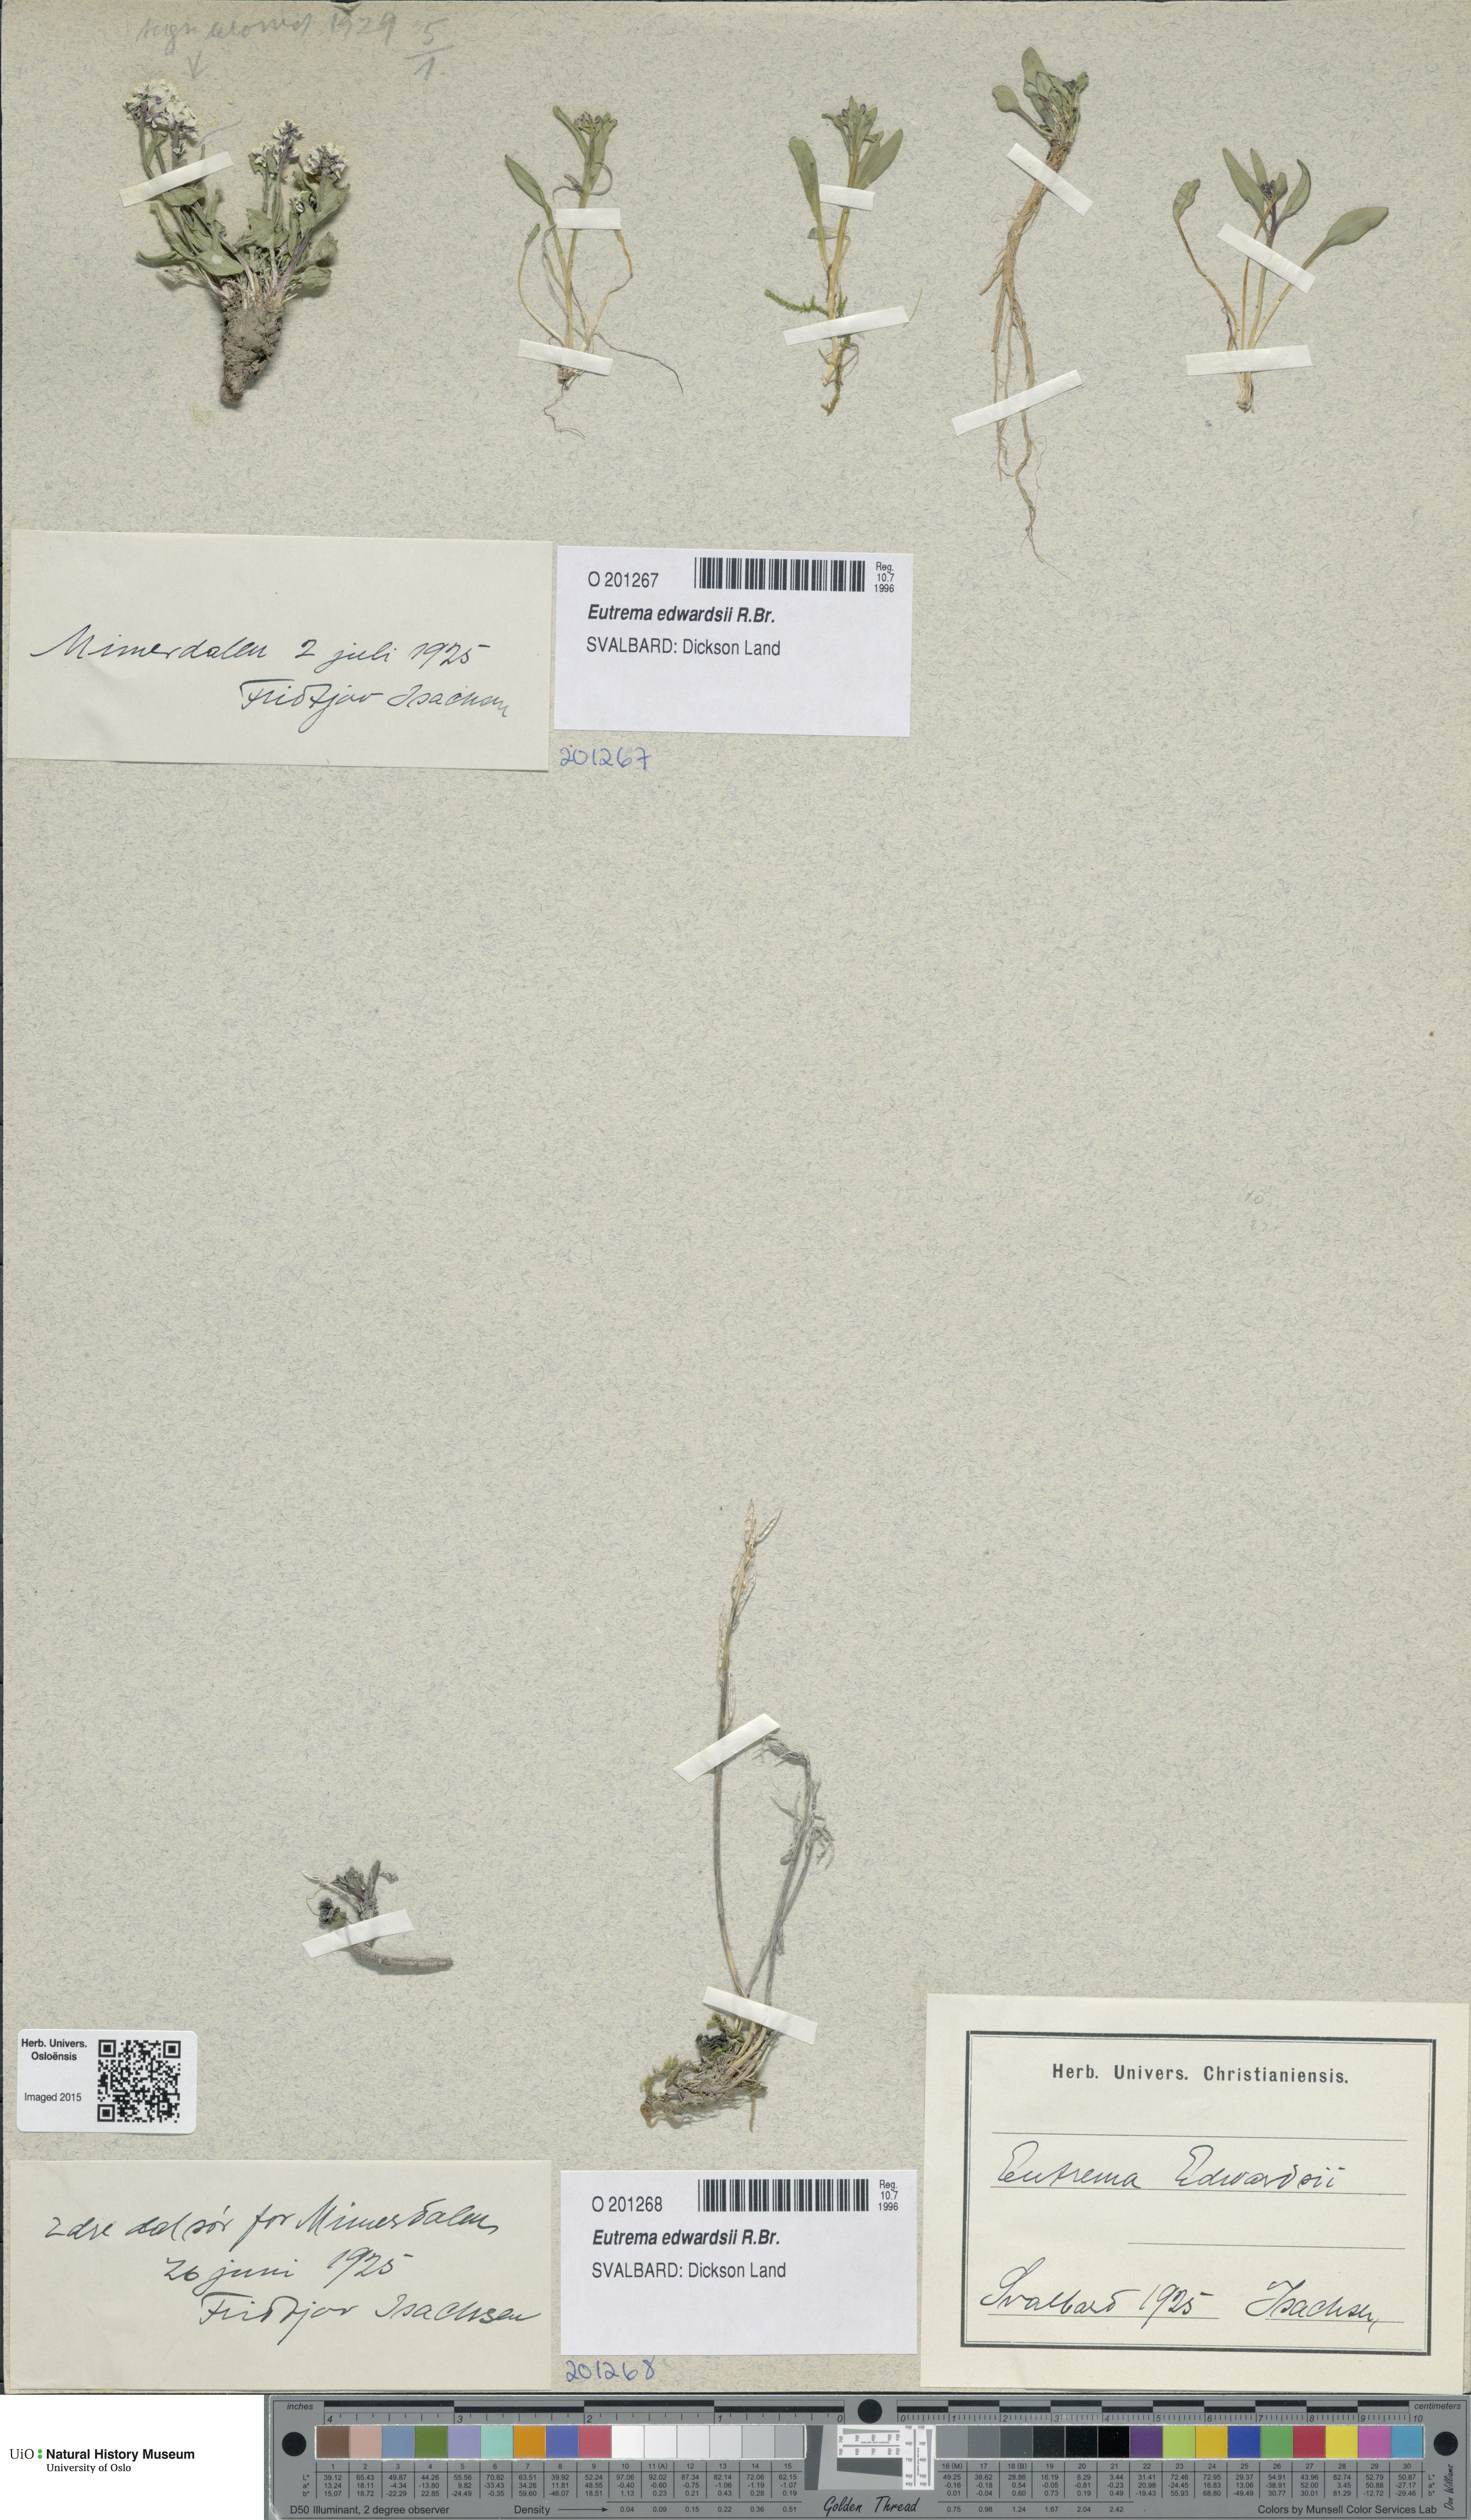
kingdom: Plantae
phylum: Tracheophyta
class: Magnoliopsida
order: Brassicales
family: Brassicaceae
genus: Eutrema
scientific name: Eutrema edwardsii
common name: Penland alpine fen mustard
